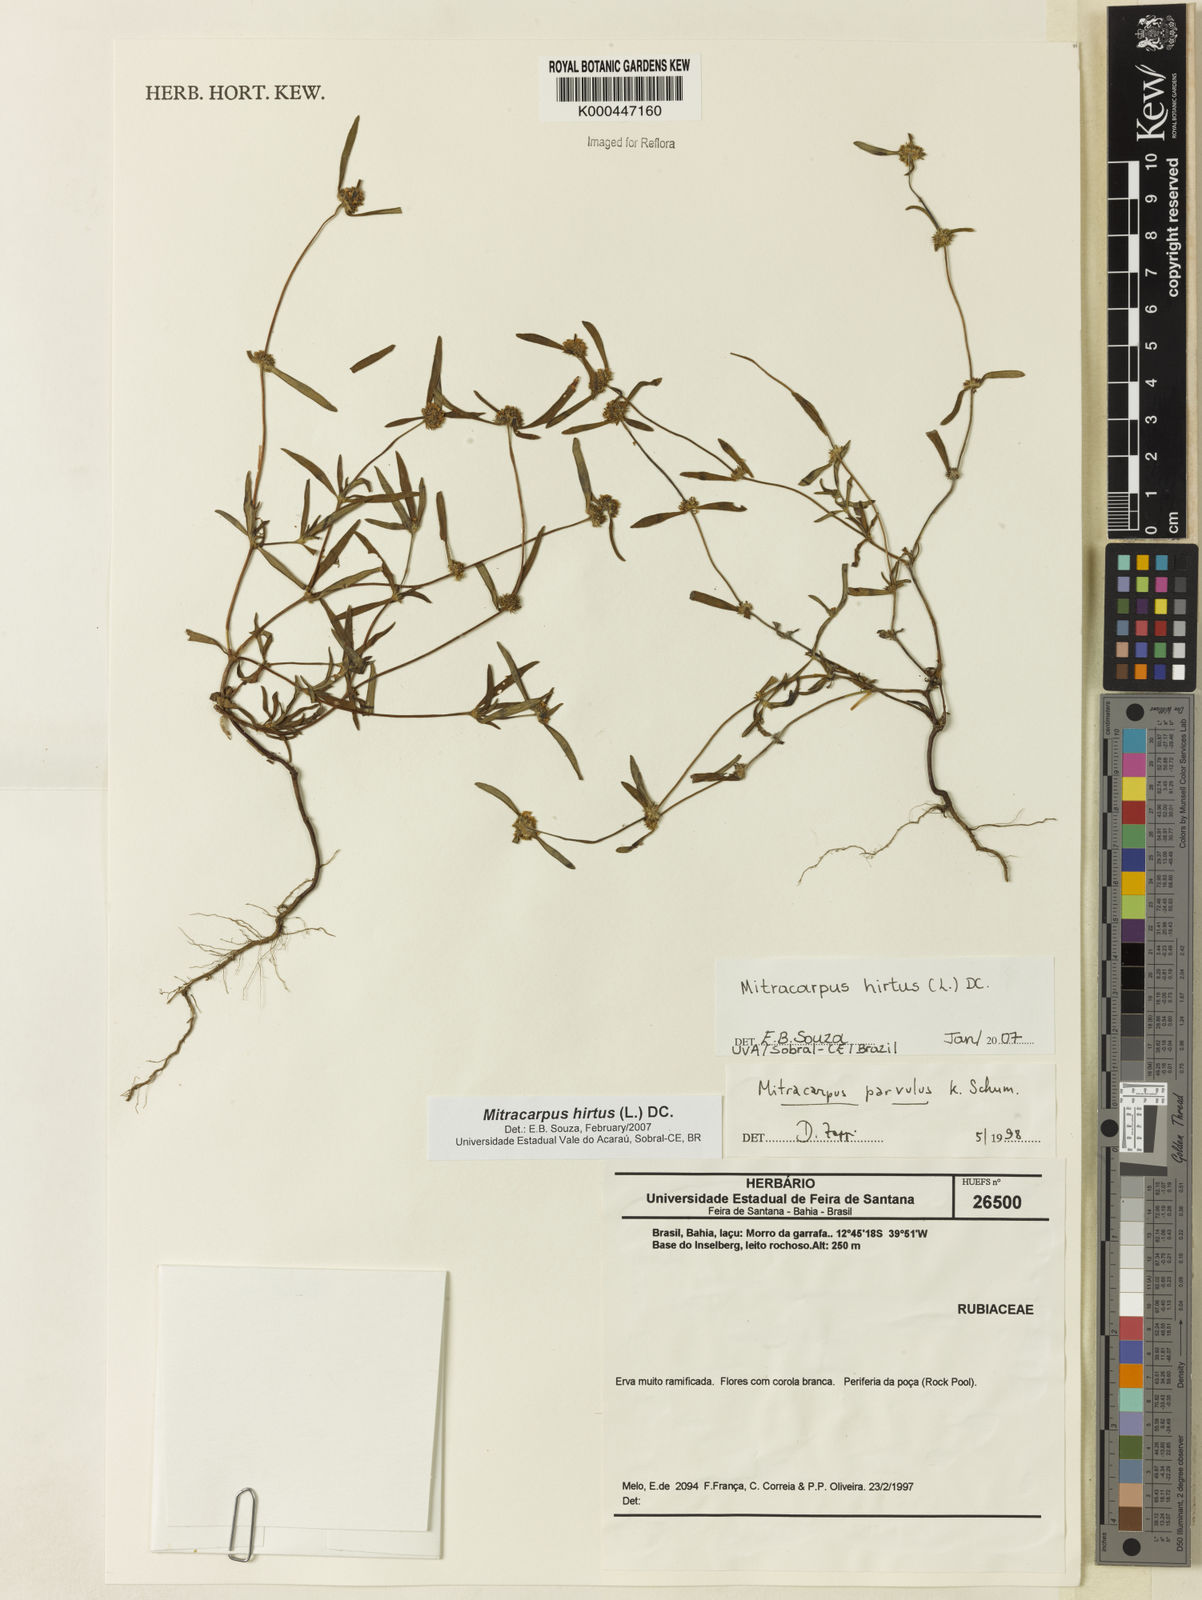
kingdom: Plantae
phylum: Tracheophyta
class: Magnoliopsida
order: Gentianales
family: Rubiaceae
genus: Mitracarpus
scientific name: Mitracarpus hirtus
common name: Tropical girdlepod
